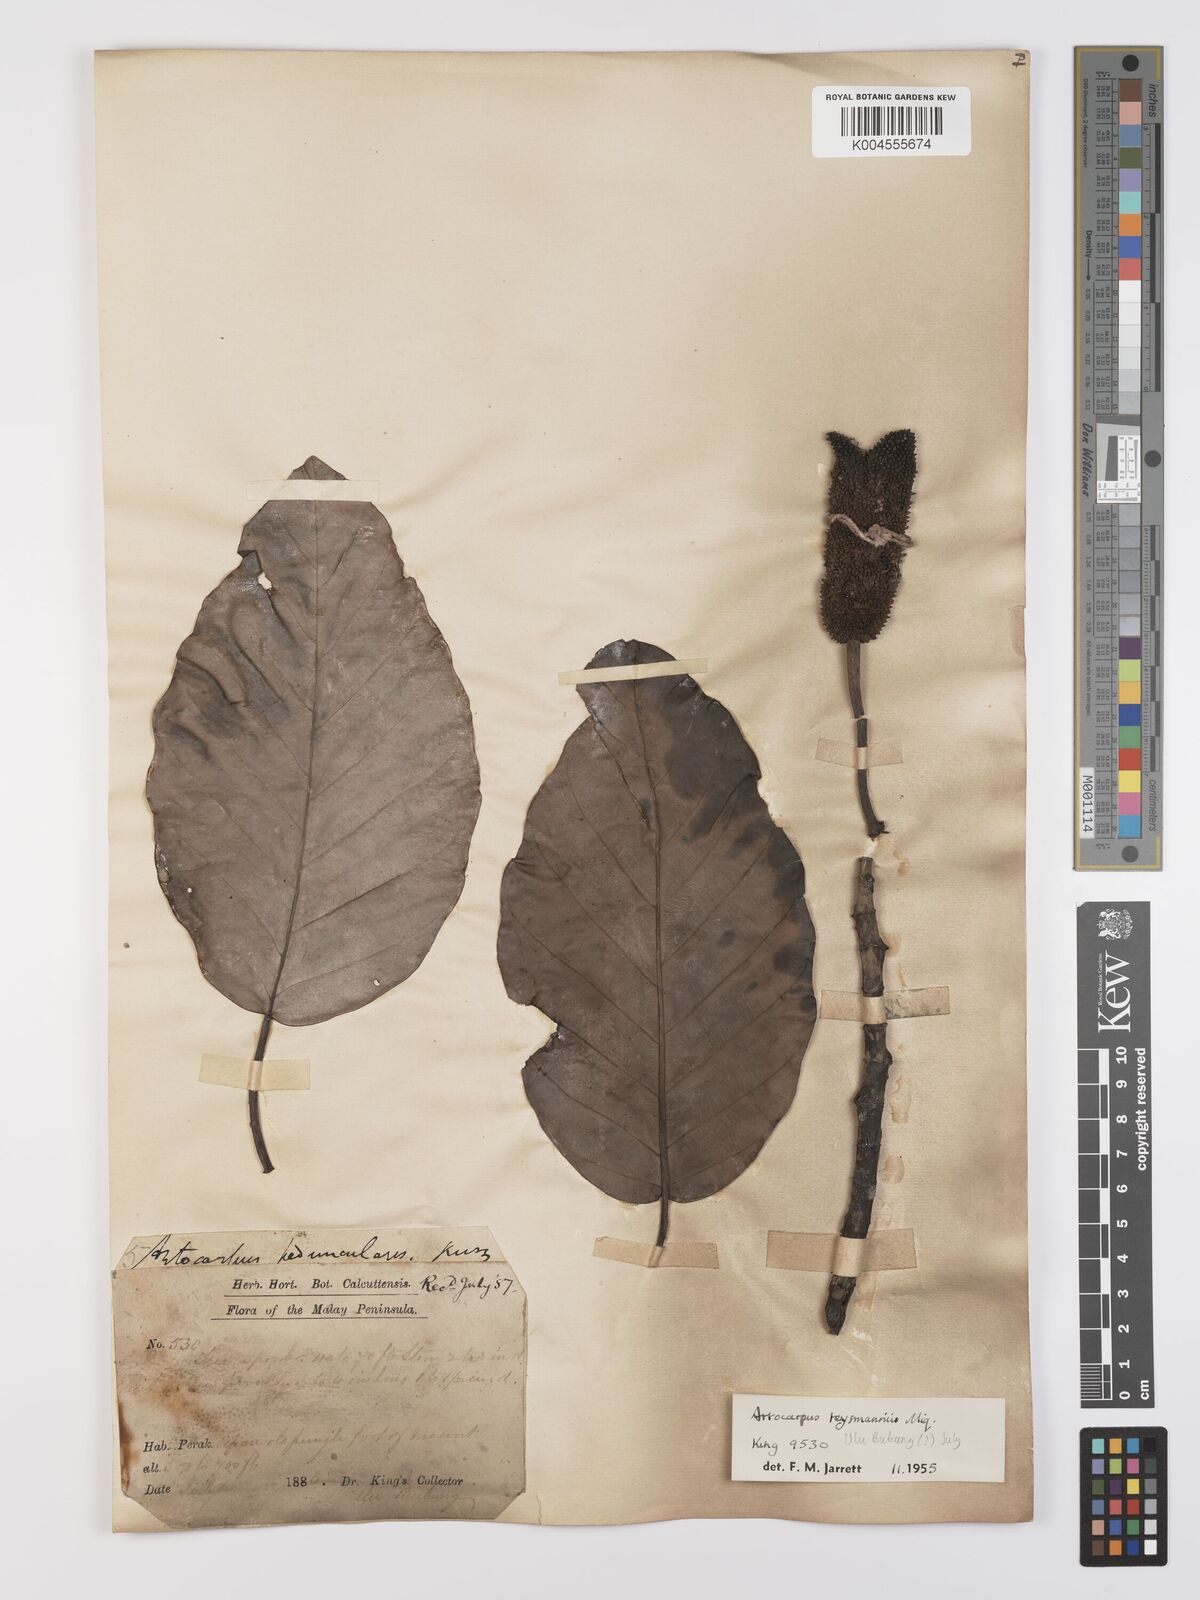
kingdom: Plantae
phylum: Tracheophyta
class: Magnoliopsida
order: Rosales
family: Moraceae
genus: Artocarpus
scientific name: Artocarpus teysmannii
